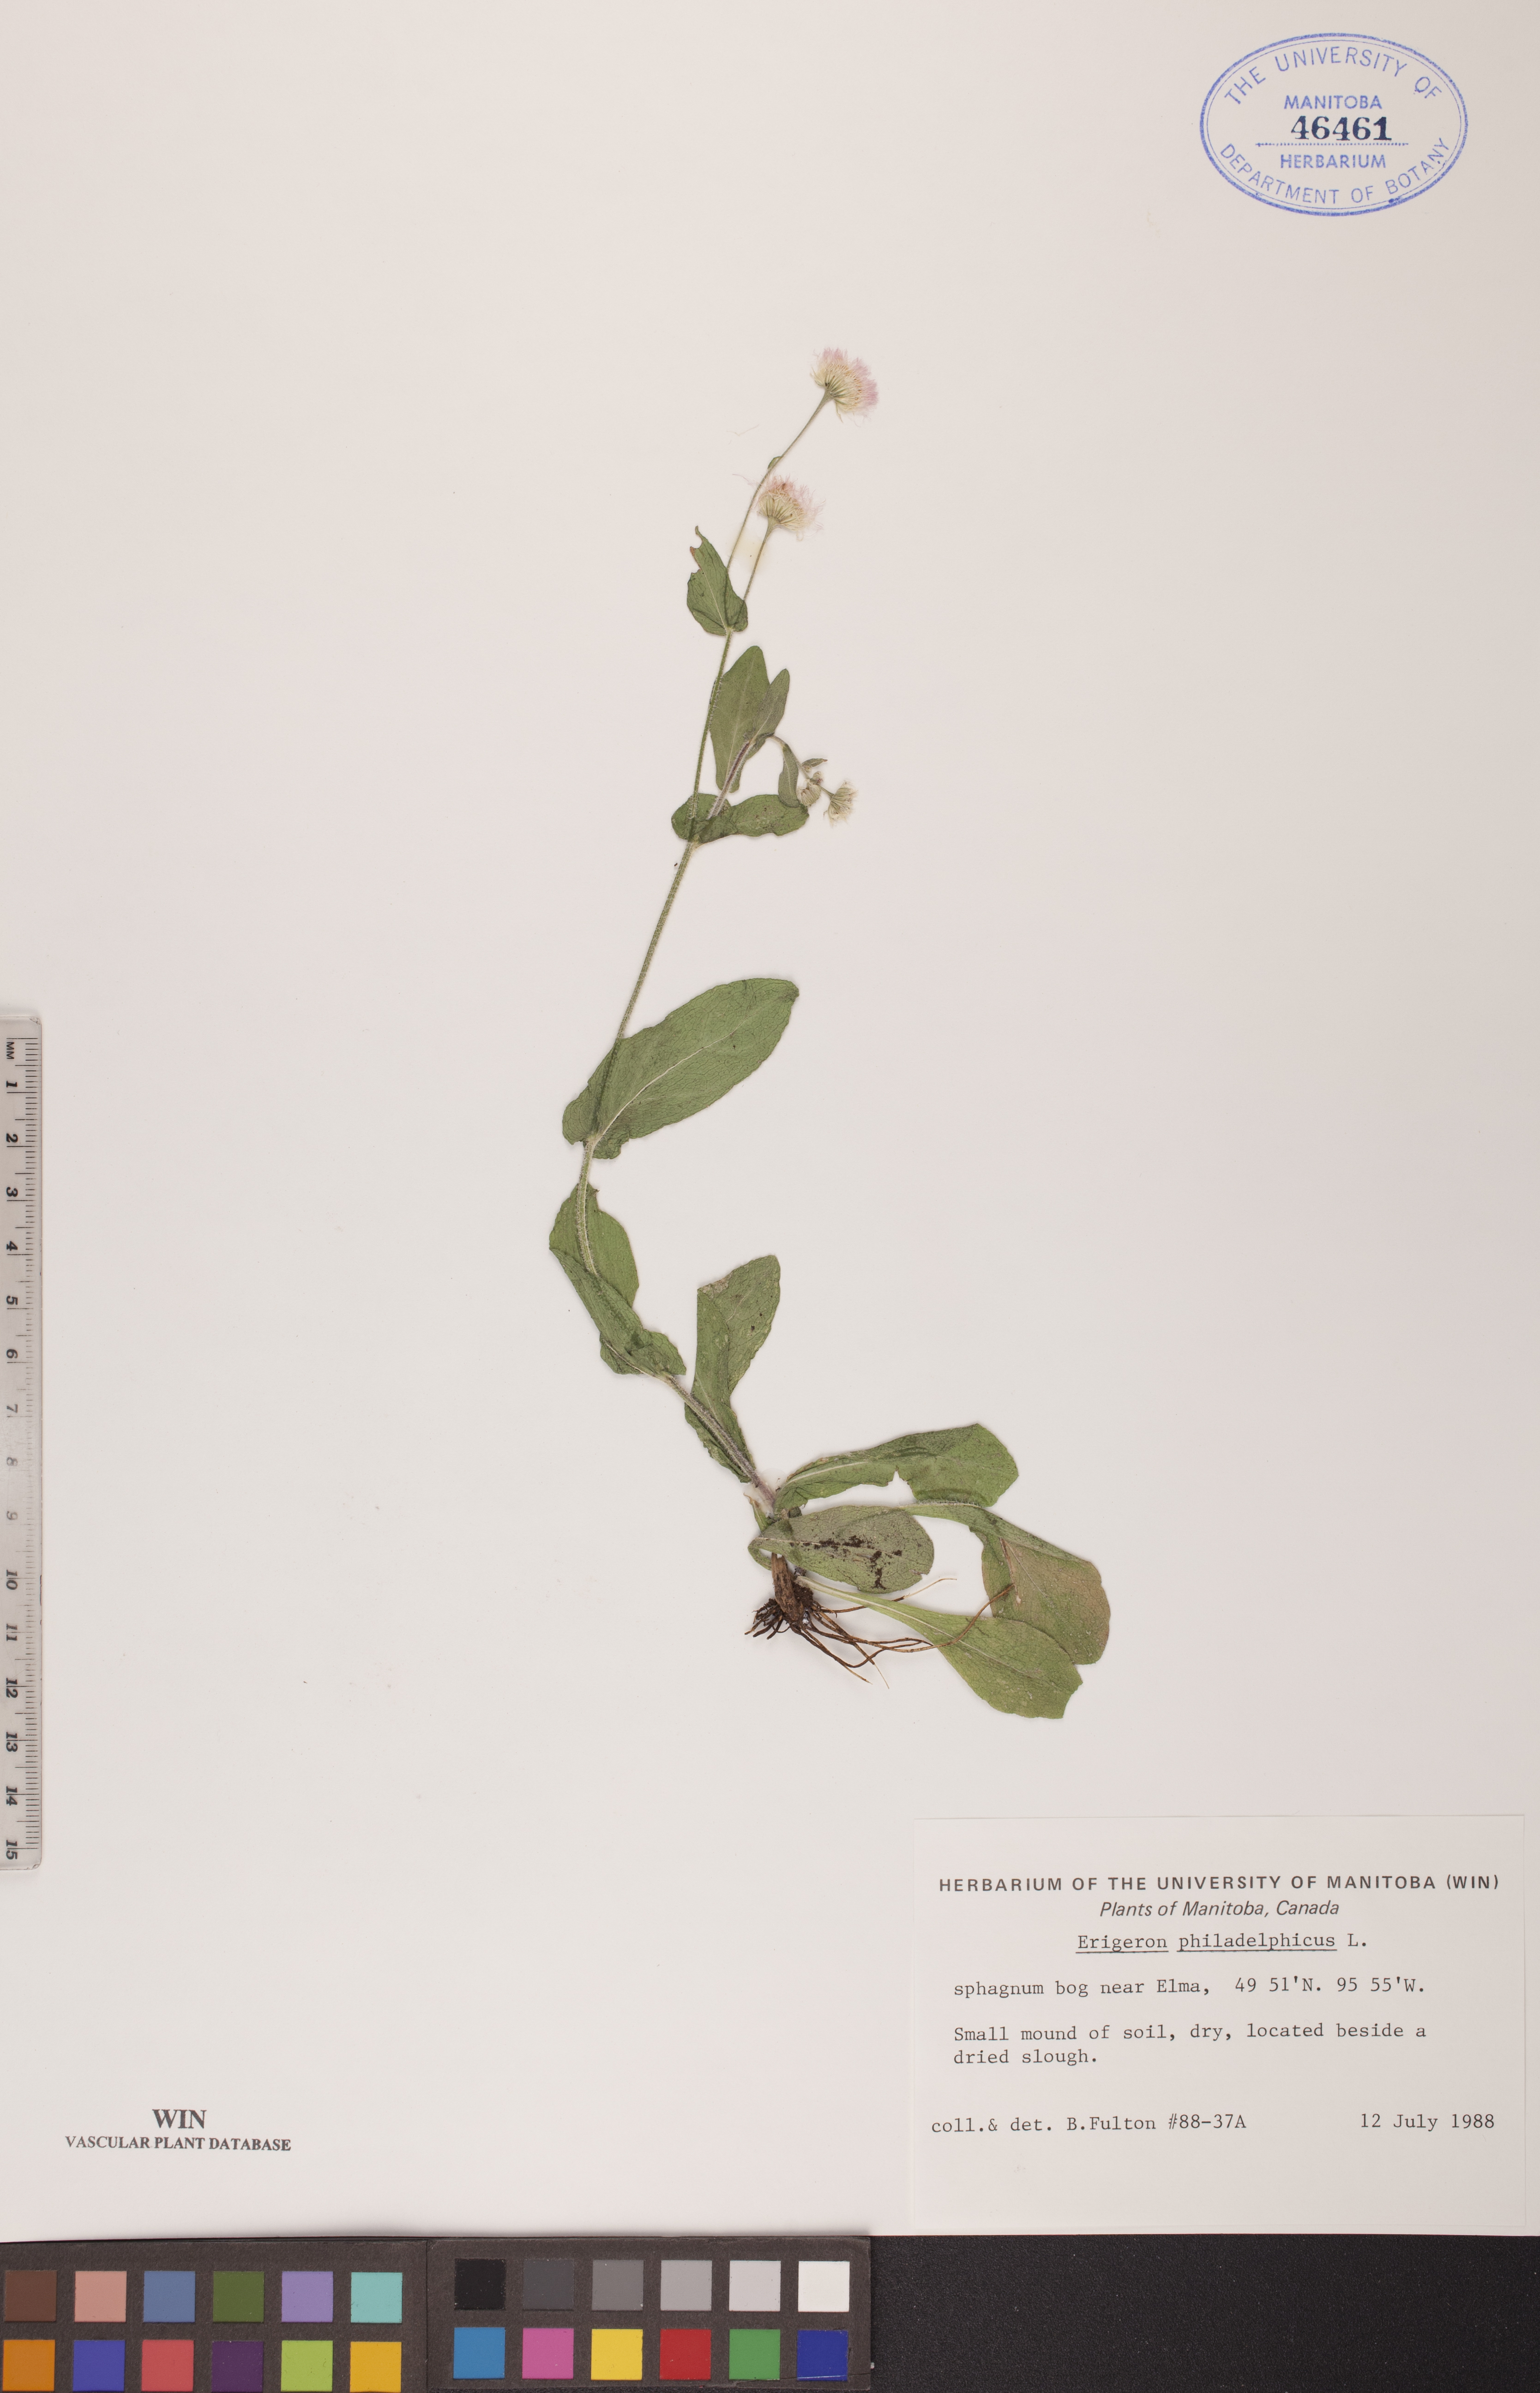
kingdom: Plantae
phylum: Tracheophyta
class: Magnoliopsida
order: Asterales
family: Asteraceae
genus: Erigeron
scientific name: Erigeron philadelphicus
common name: Robin's-plantain
